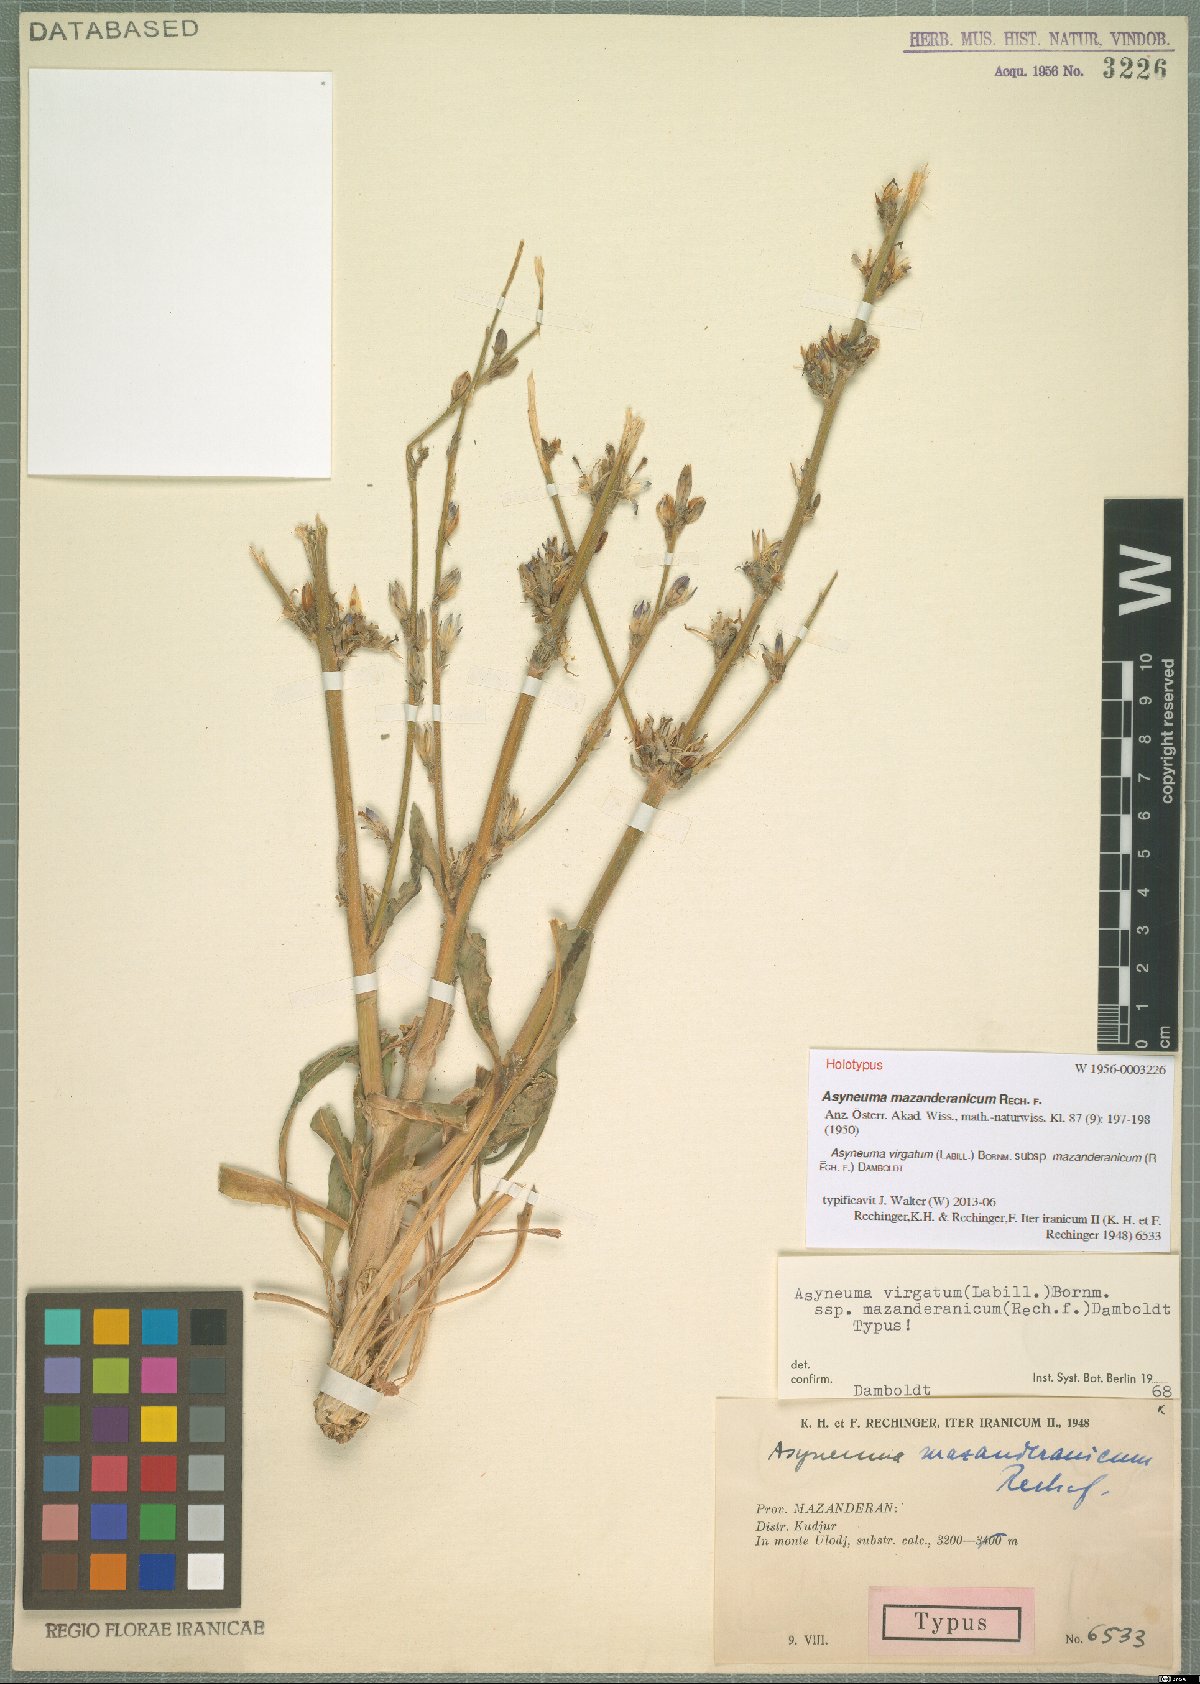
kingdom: Plantae
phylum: Tracheophyta
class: Magnoliopsida
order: Asterales
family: Campanulaceae
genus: Asyneuma
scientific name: Asyneuma virgatum
